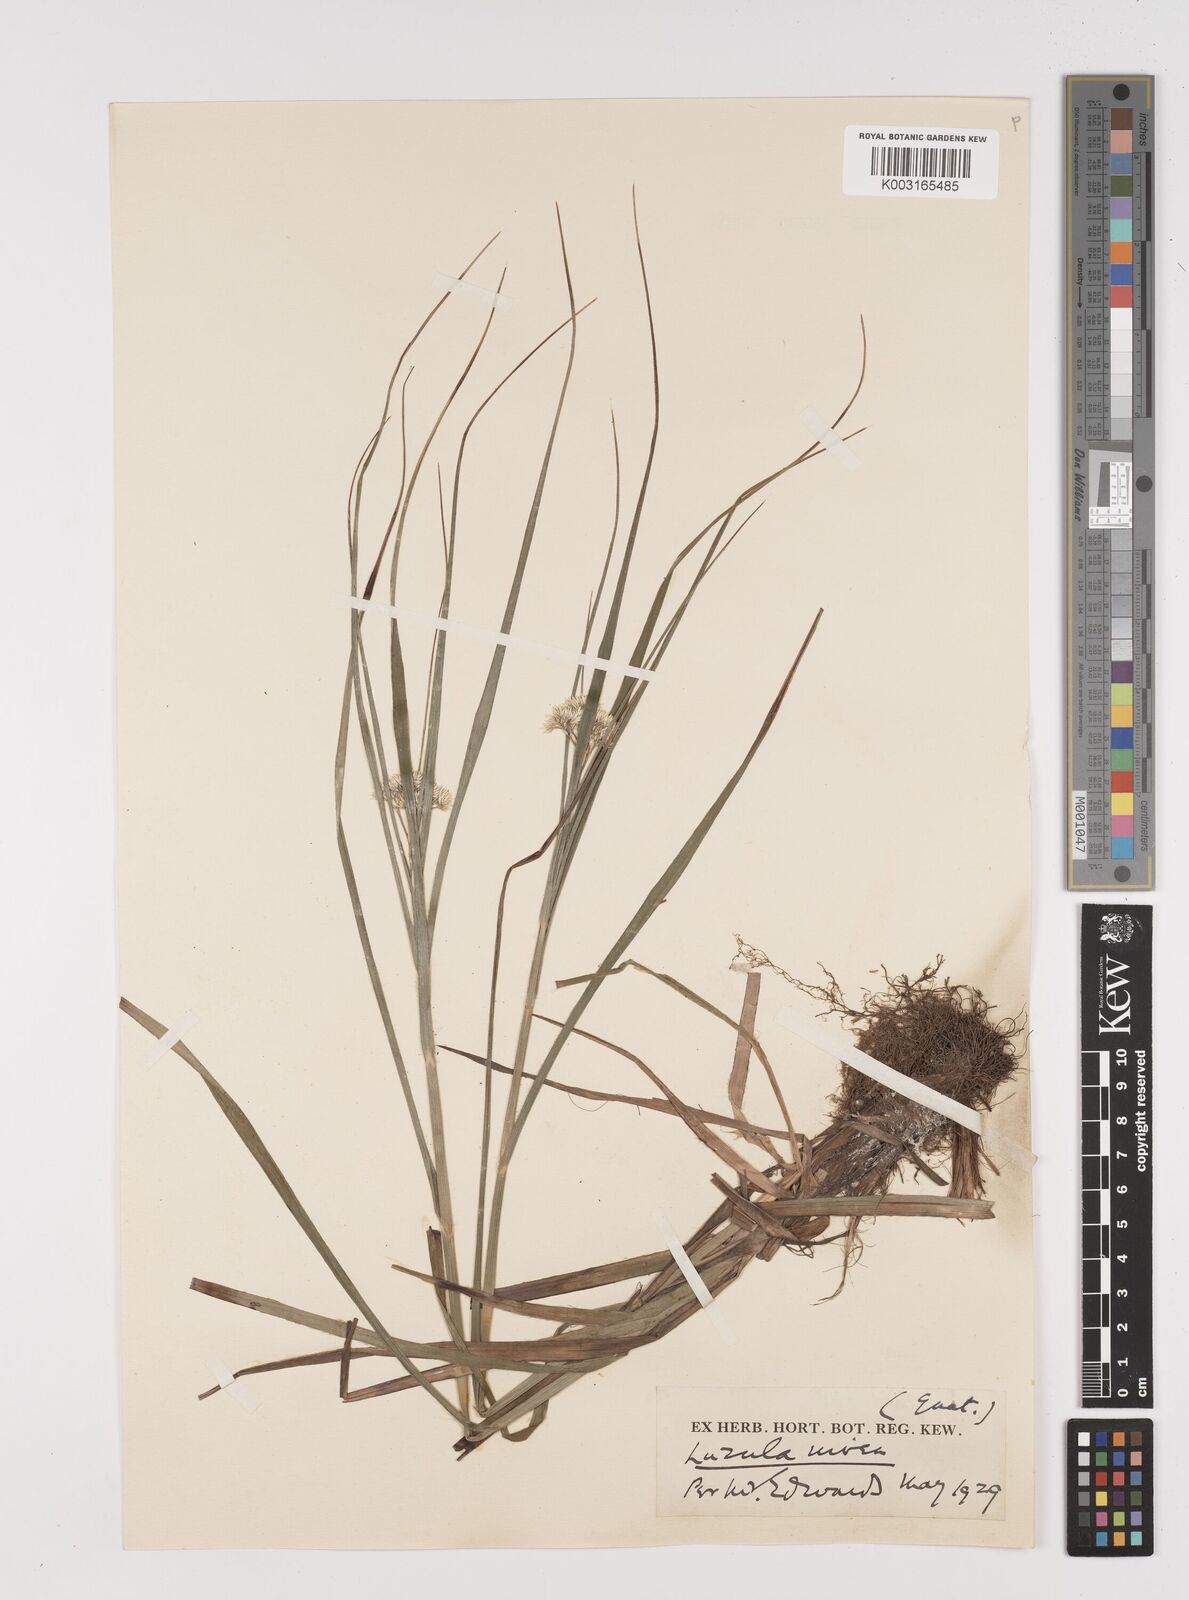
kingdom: Plantae
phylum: Tracheophyta
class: Liliopsida
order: Poales
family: Juncaceae
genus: Luzula
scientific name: Luzula nivea
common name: Snow-white wood-rush
